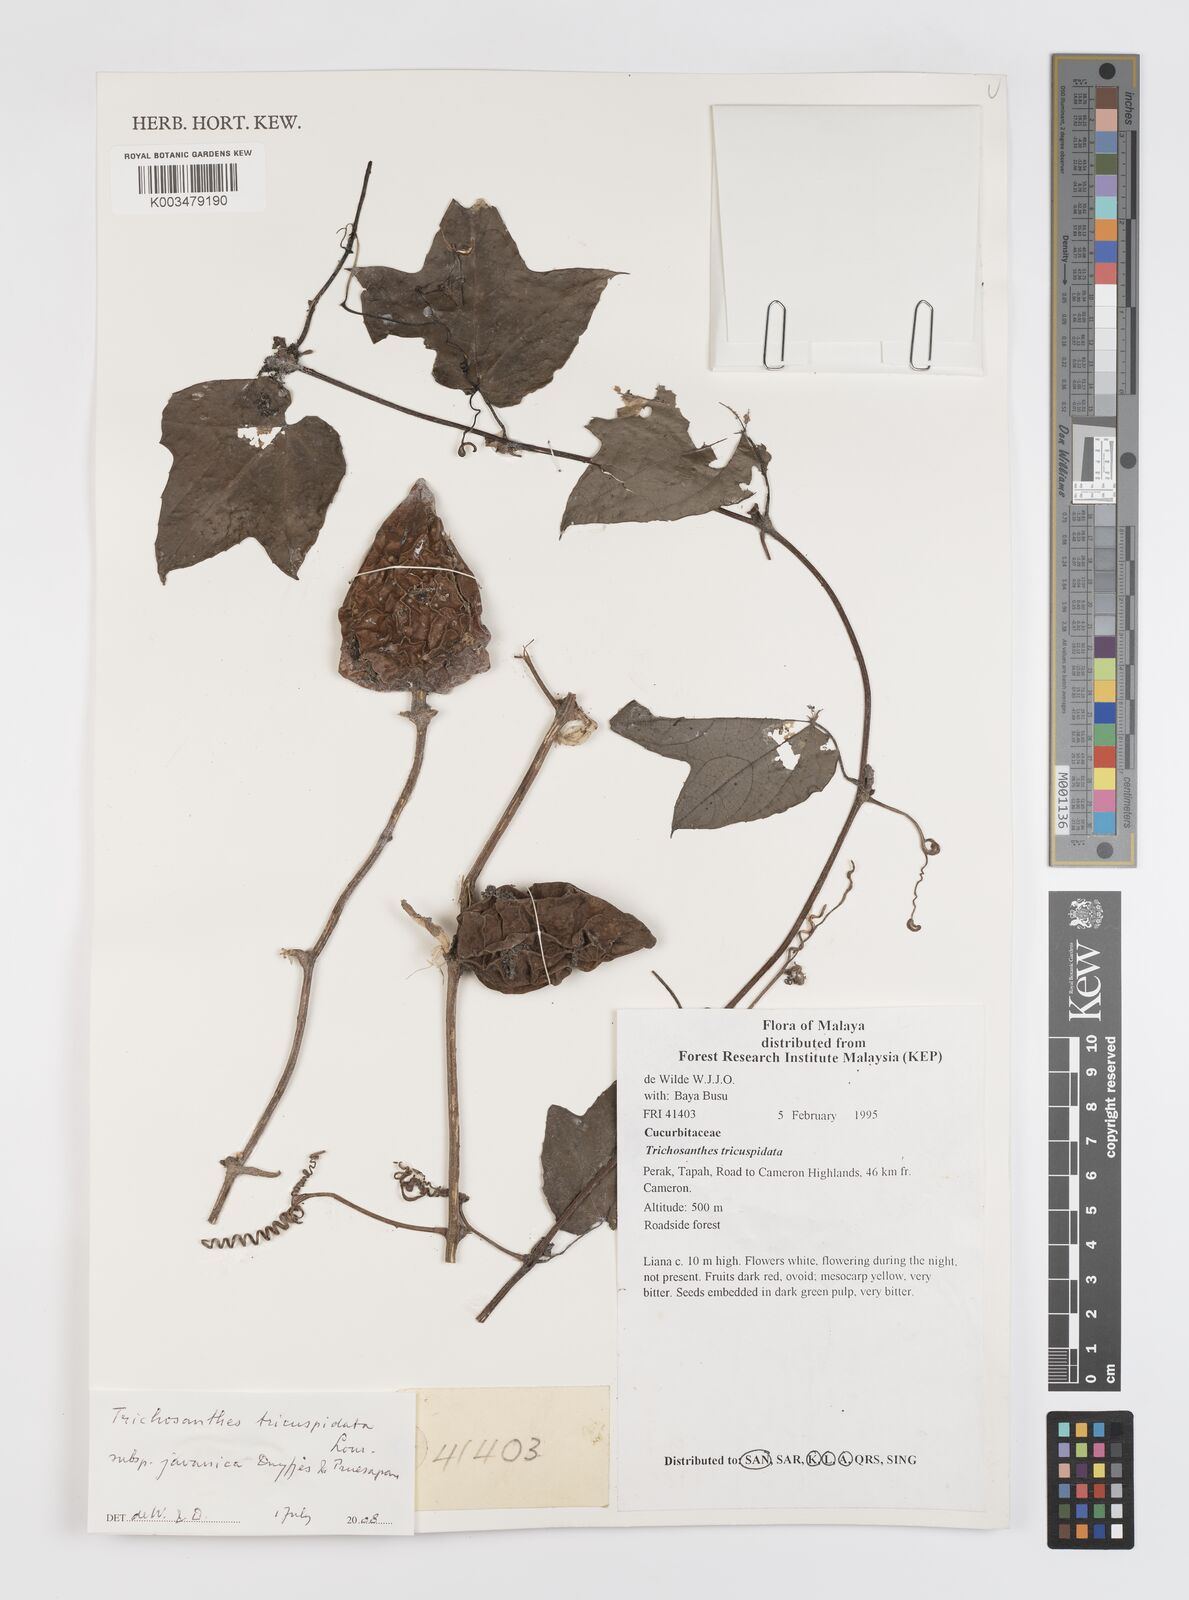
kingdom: Plantae
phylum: Tracheophyta
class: Magnoliopsida
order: Cucurbitales
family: Cucurbitaceae
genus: Trichosanthes
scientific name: Trichosanthes tricuspidata
